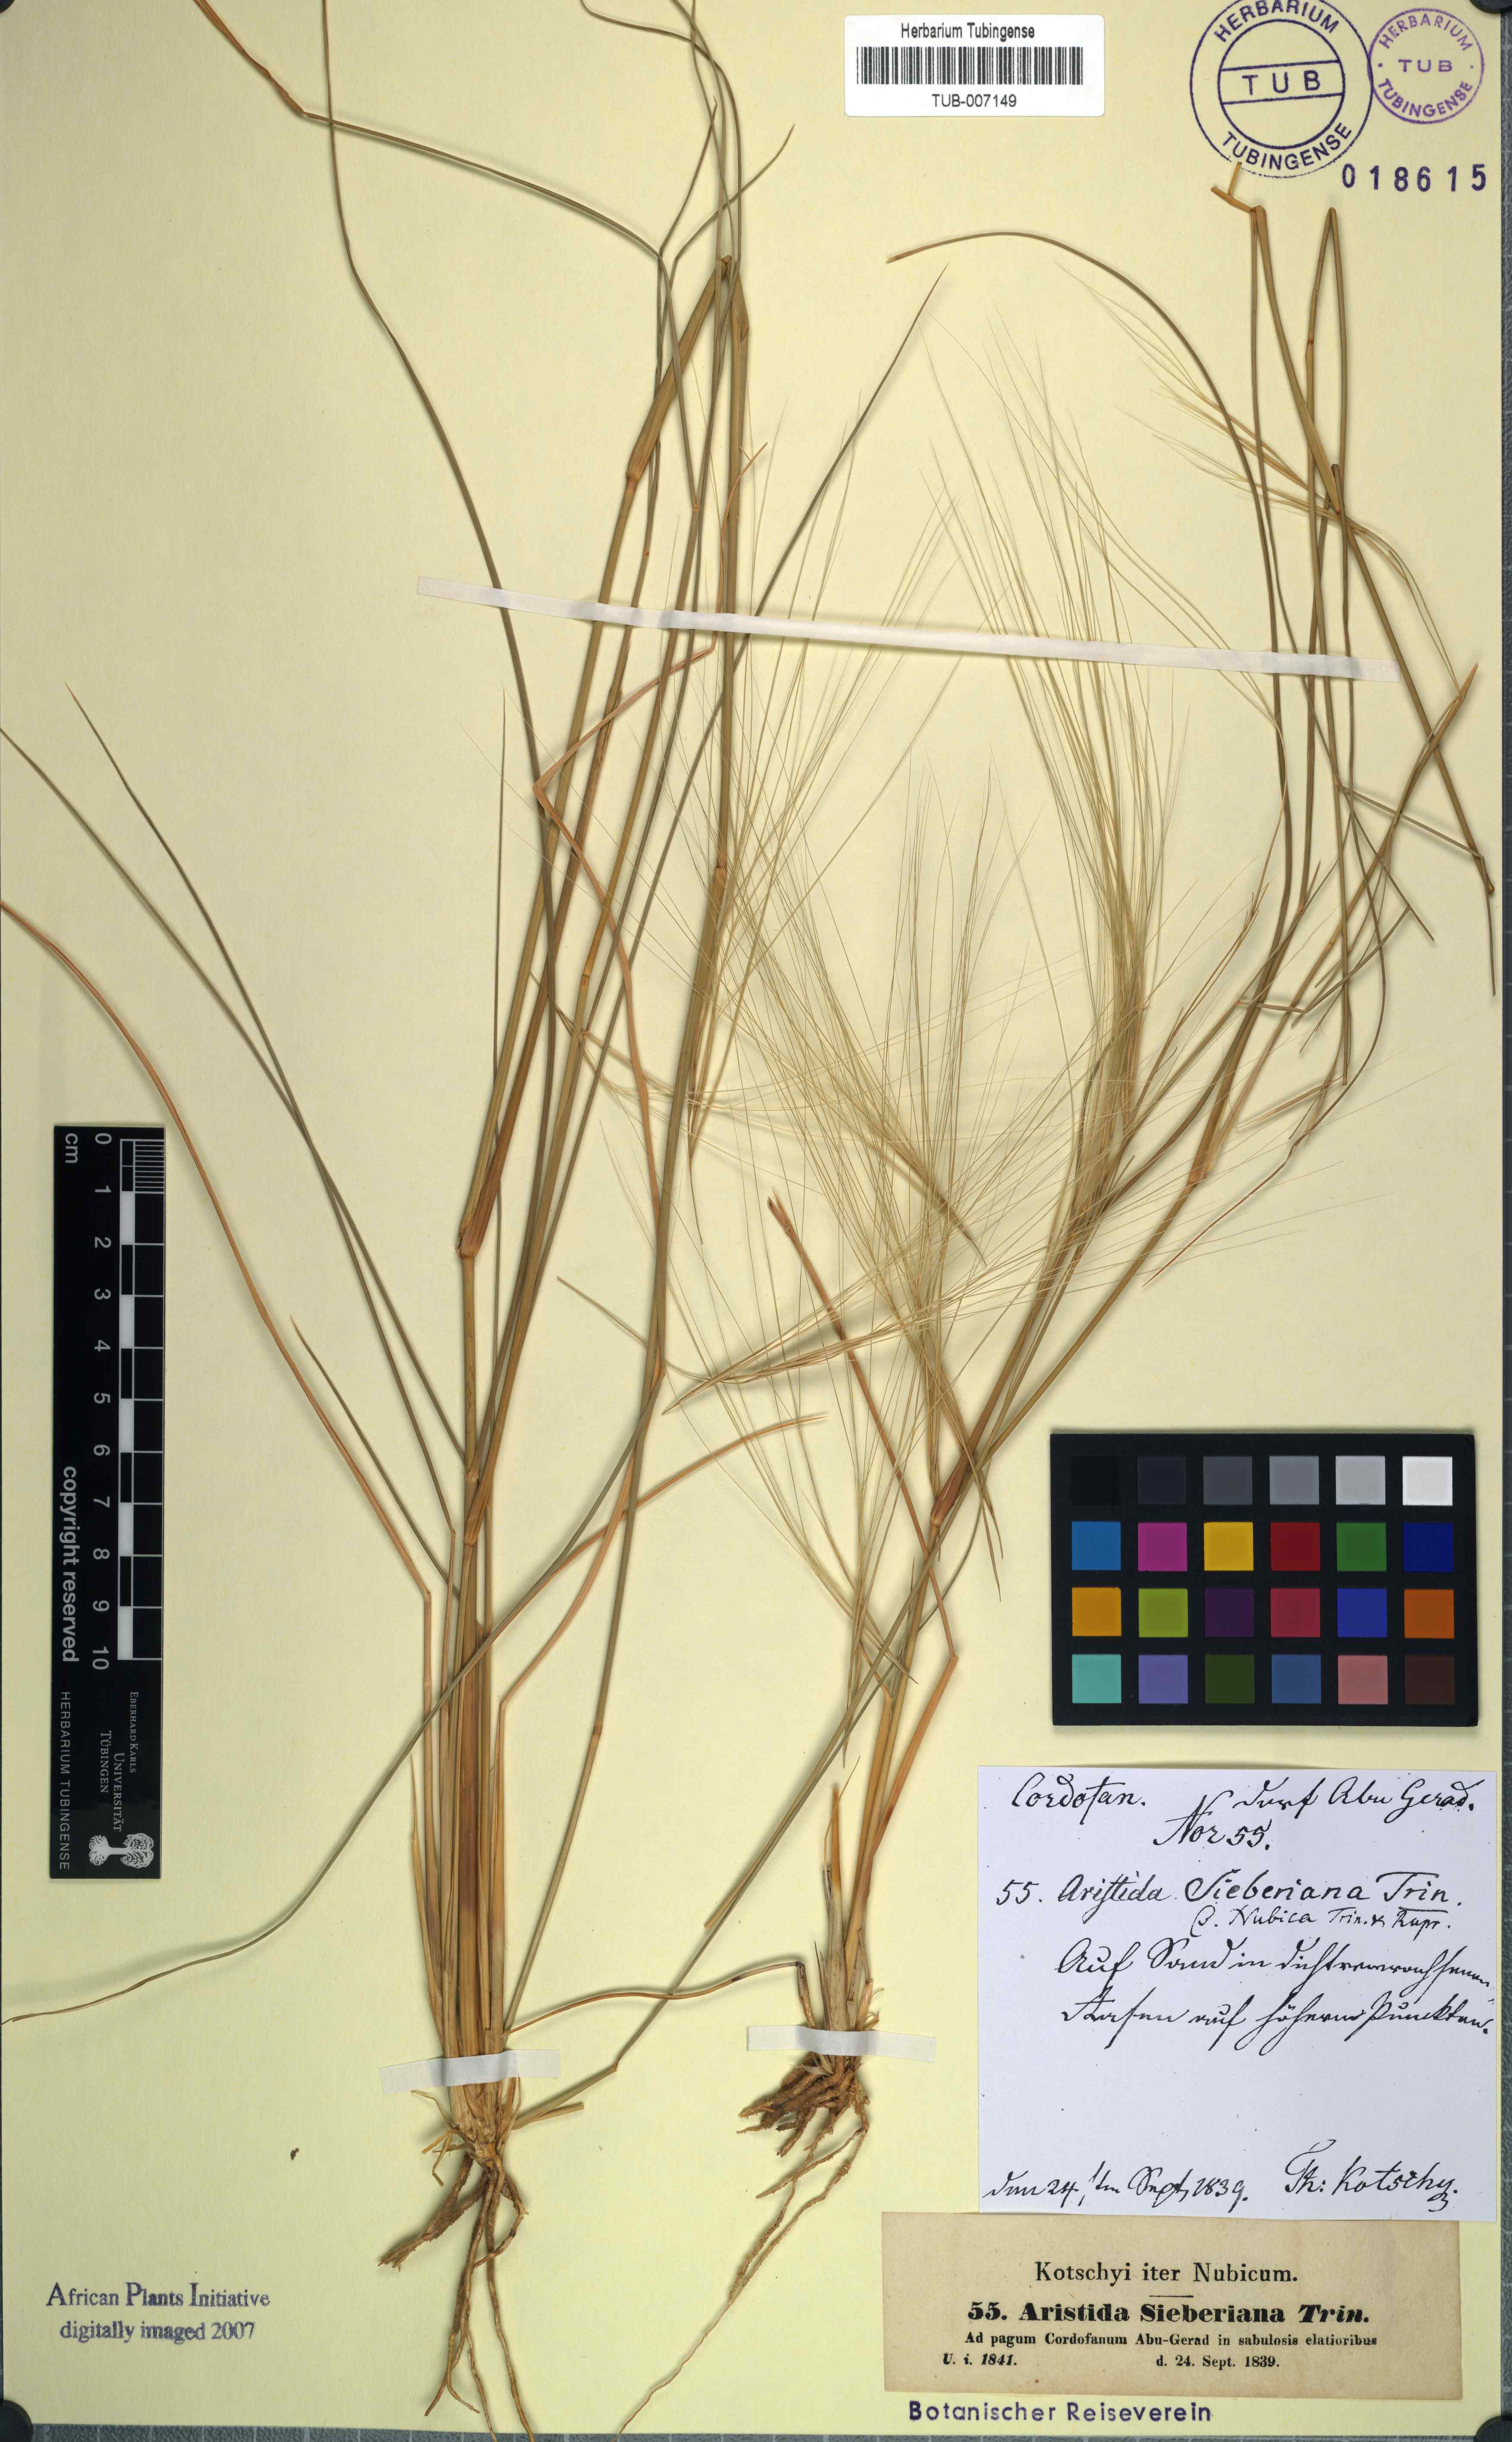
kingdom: Plantae
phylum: Tracheophyta
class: Liliopsida
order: Poales
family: Poaceae
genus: Aristida
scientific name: Aristida sieberiana
